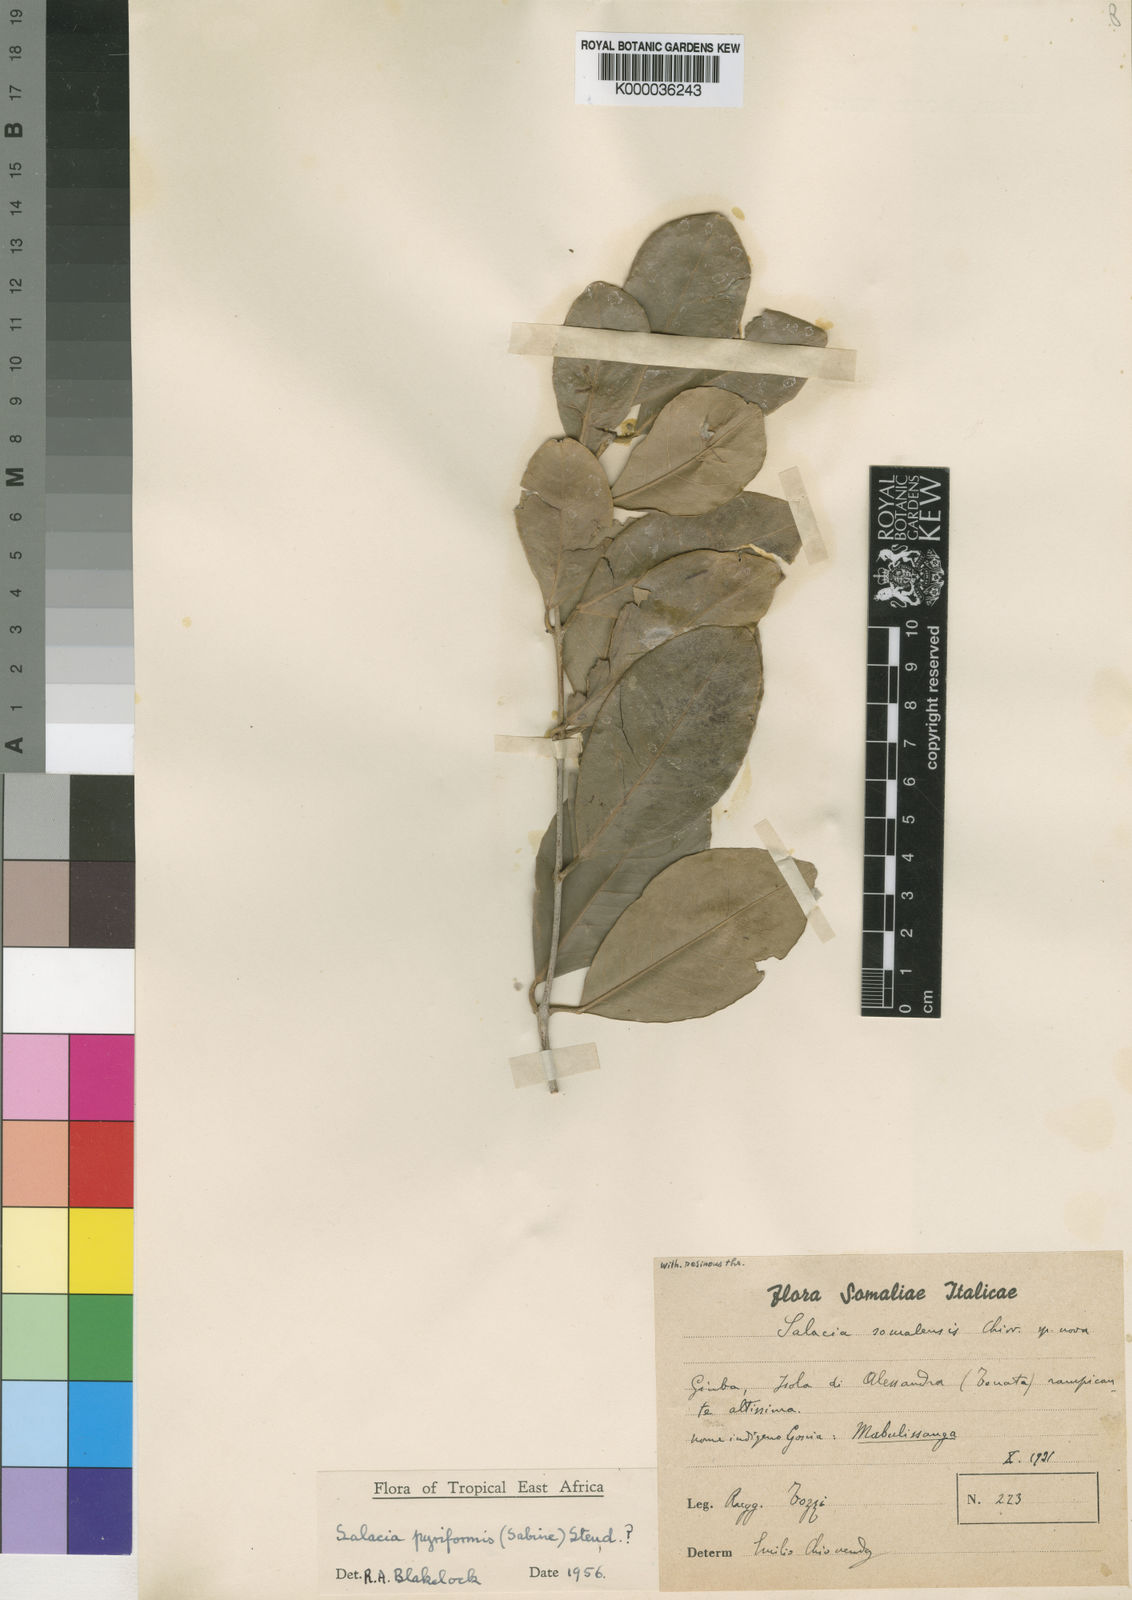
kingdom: Plantae
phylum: Tracheophyta
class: Magnoliopsida
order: Celastrales
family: Celastraceae
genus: Salacia
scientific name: Salacia stuhlmanniana
